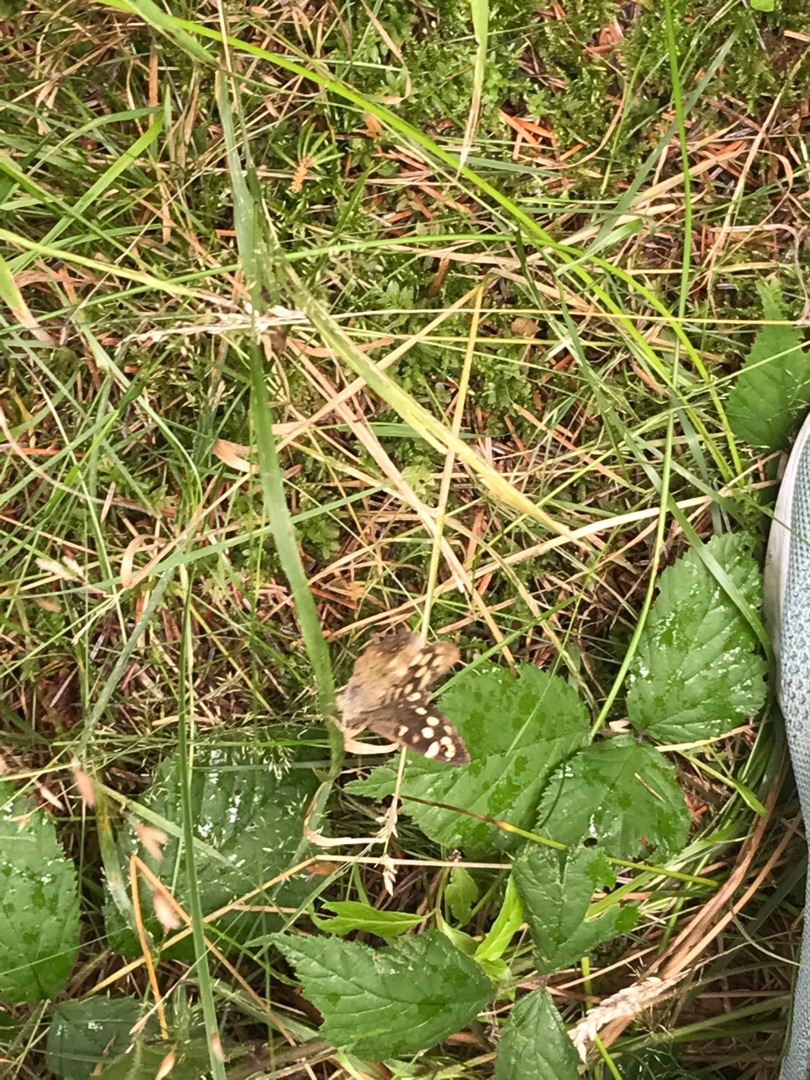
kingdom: Animalia
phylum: Arthropoda
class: Insecta
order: Lepidoptera
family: Nymphalidae
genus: Pararge
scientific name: Pararge aegeria
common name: Skovrandøje
